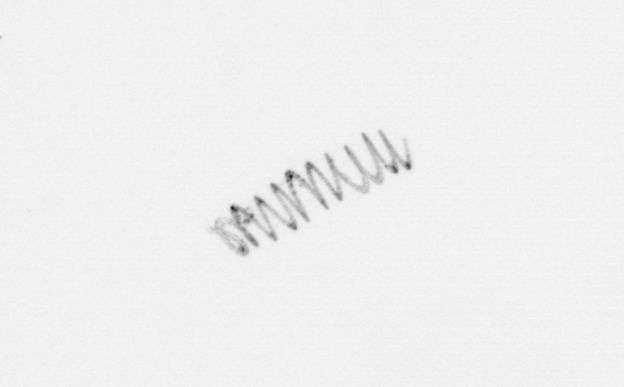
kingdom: Chromista
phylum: Ochrophyta
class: Bacillariophyceae
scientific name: Bacillariophyceae
